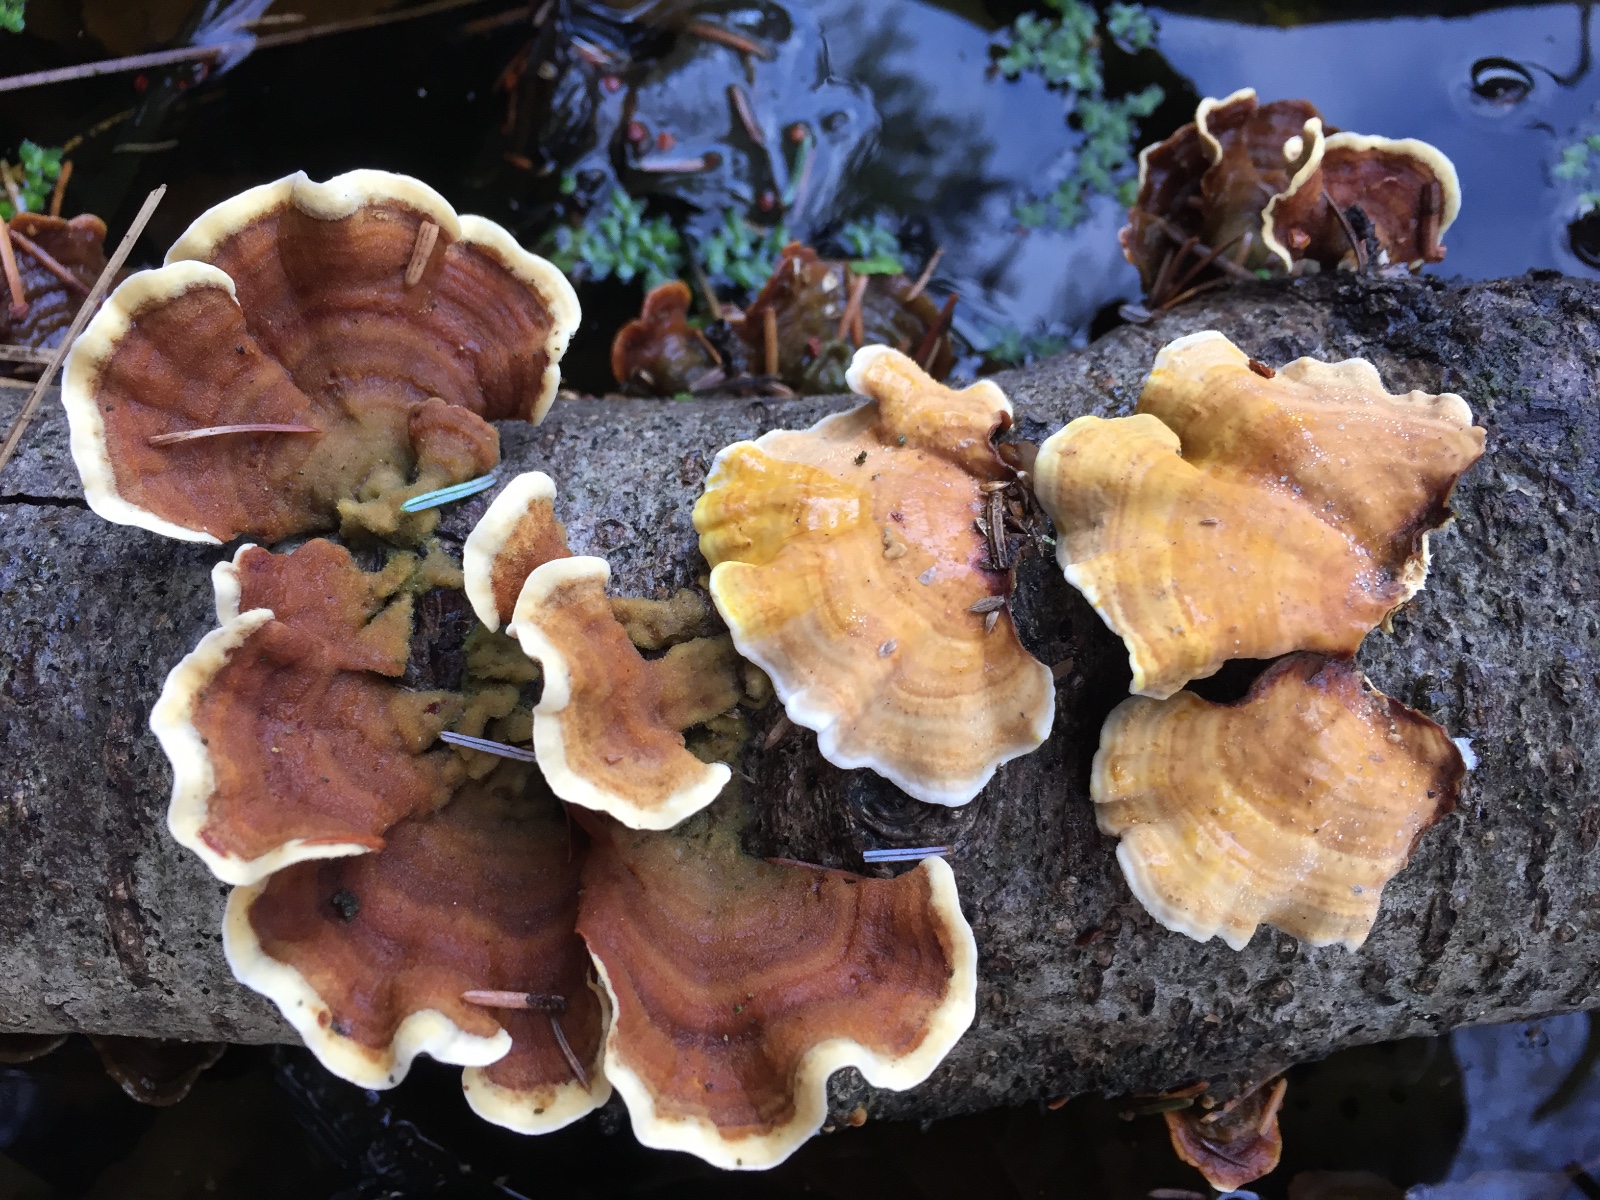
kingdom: Fungi
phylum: Basidiomycota
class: Agaricomycetes
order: Russulales
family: Stereaceae
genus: Stereum
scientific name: Stereum subtomentosum
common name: smuk lædersvamp
